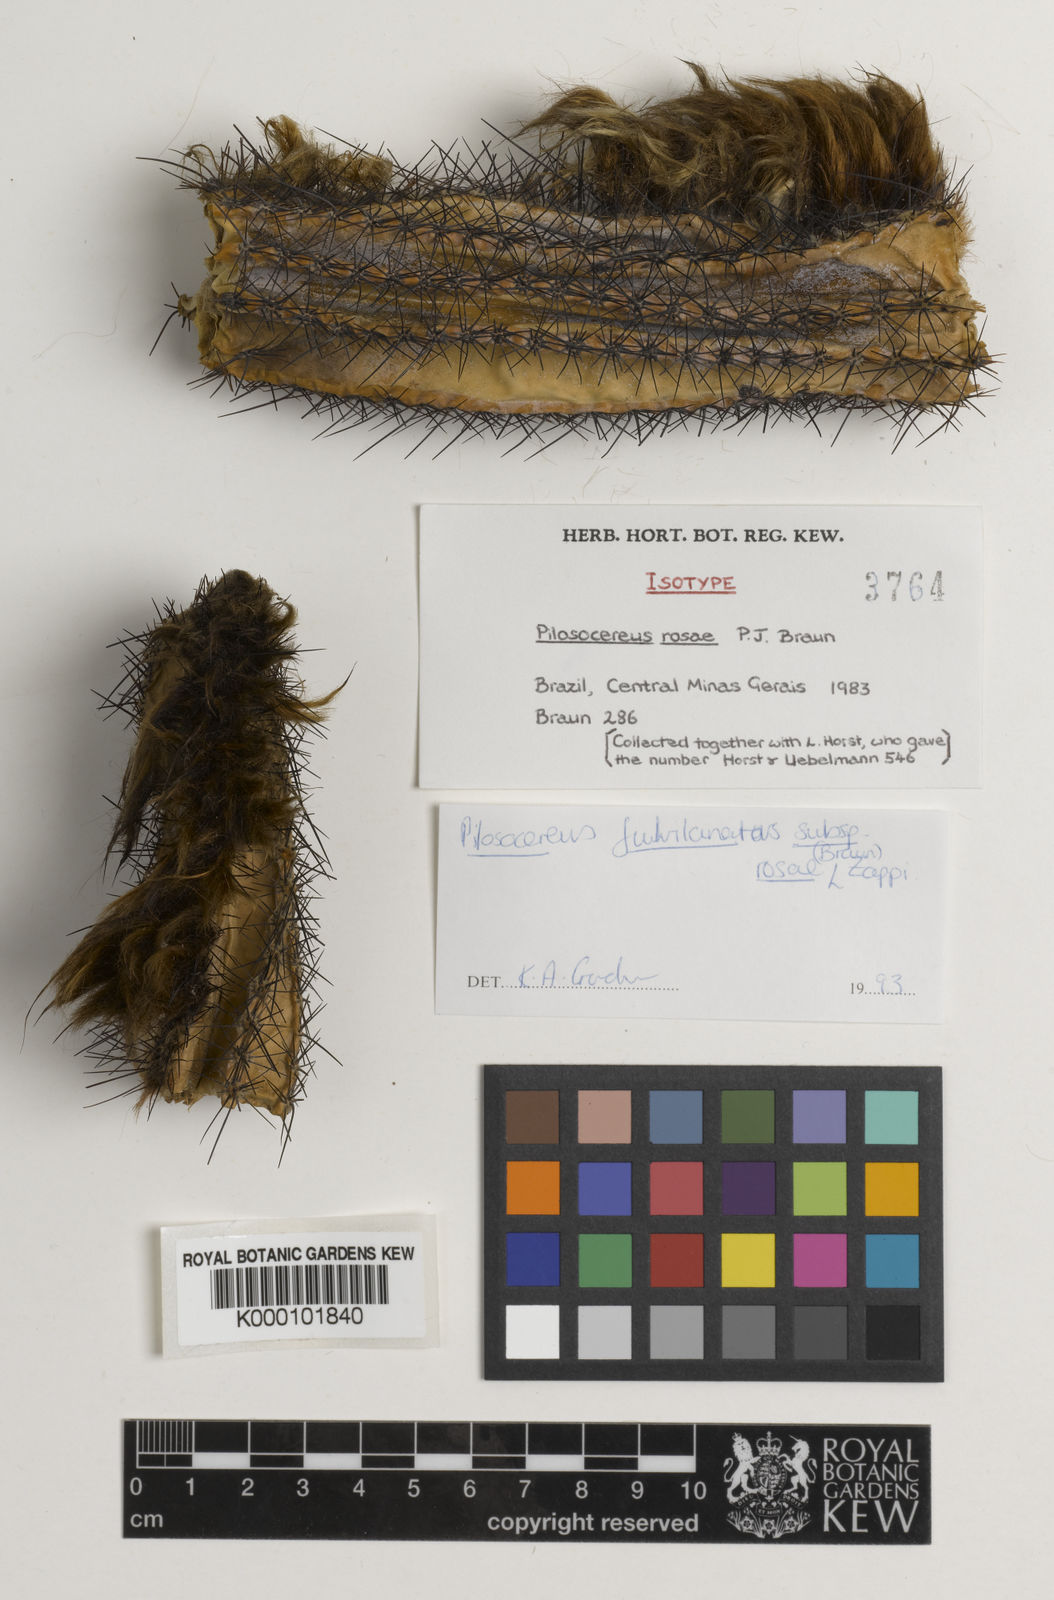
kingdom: Plantae
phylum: Tracheophyta
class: Magnoliopsida
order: Caryophyllales
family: Cactaceae
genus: Pilosocereus
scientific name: Pilosocereus rosae
